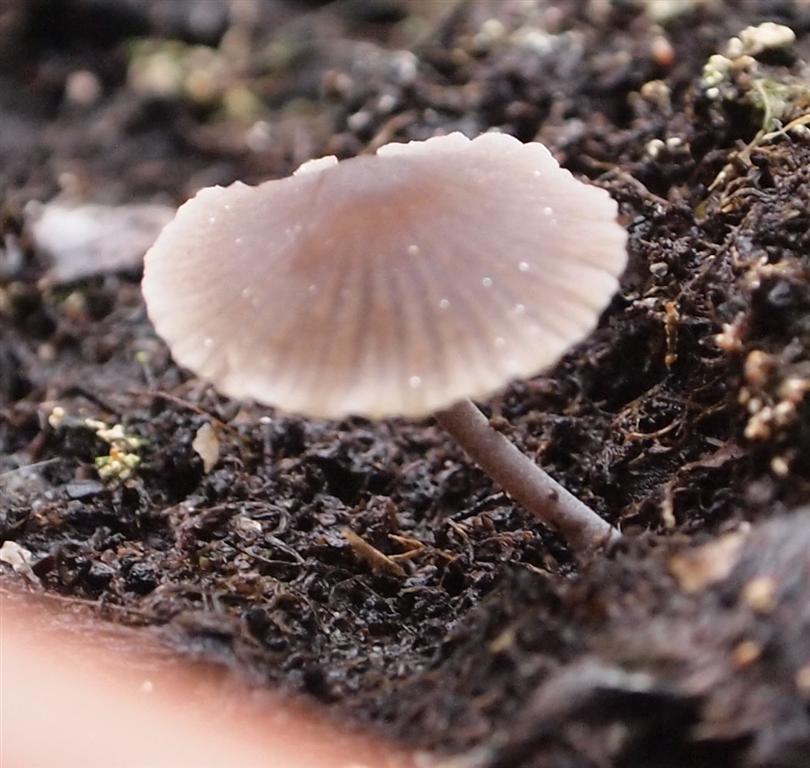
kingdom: Fungi
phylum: Basidiomycota
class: Agaricomycetes
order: Agaricales
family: Mycenaceae
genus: Mycena
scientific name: Mycena leptocephala
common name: klor-huesvamp
